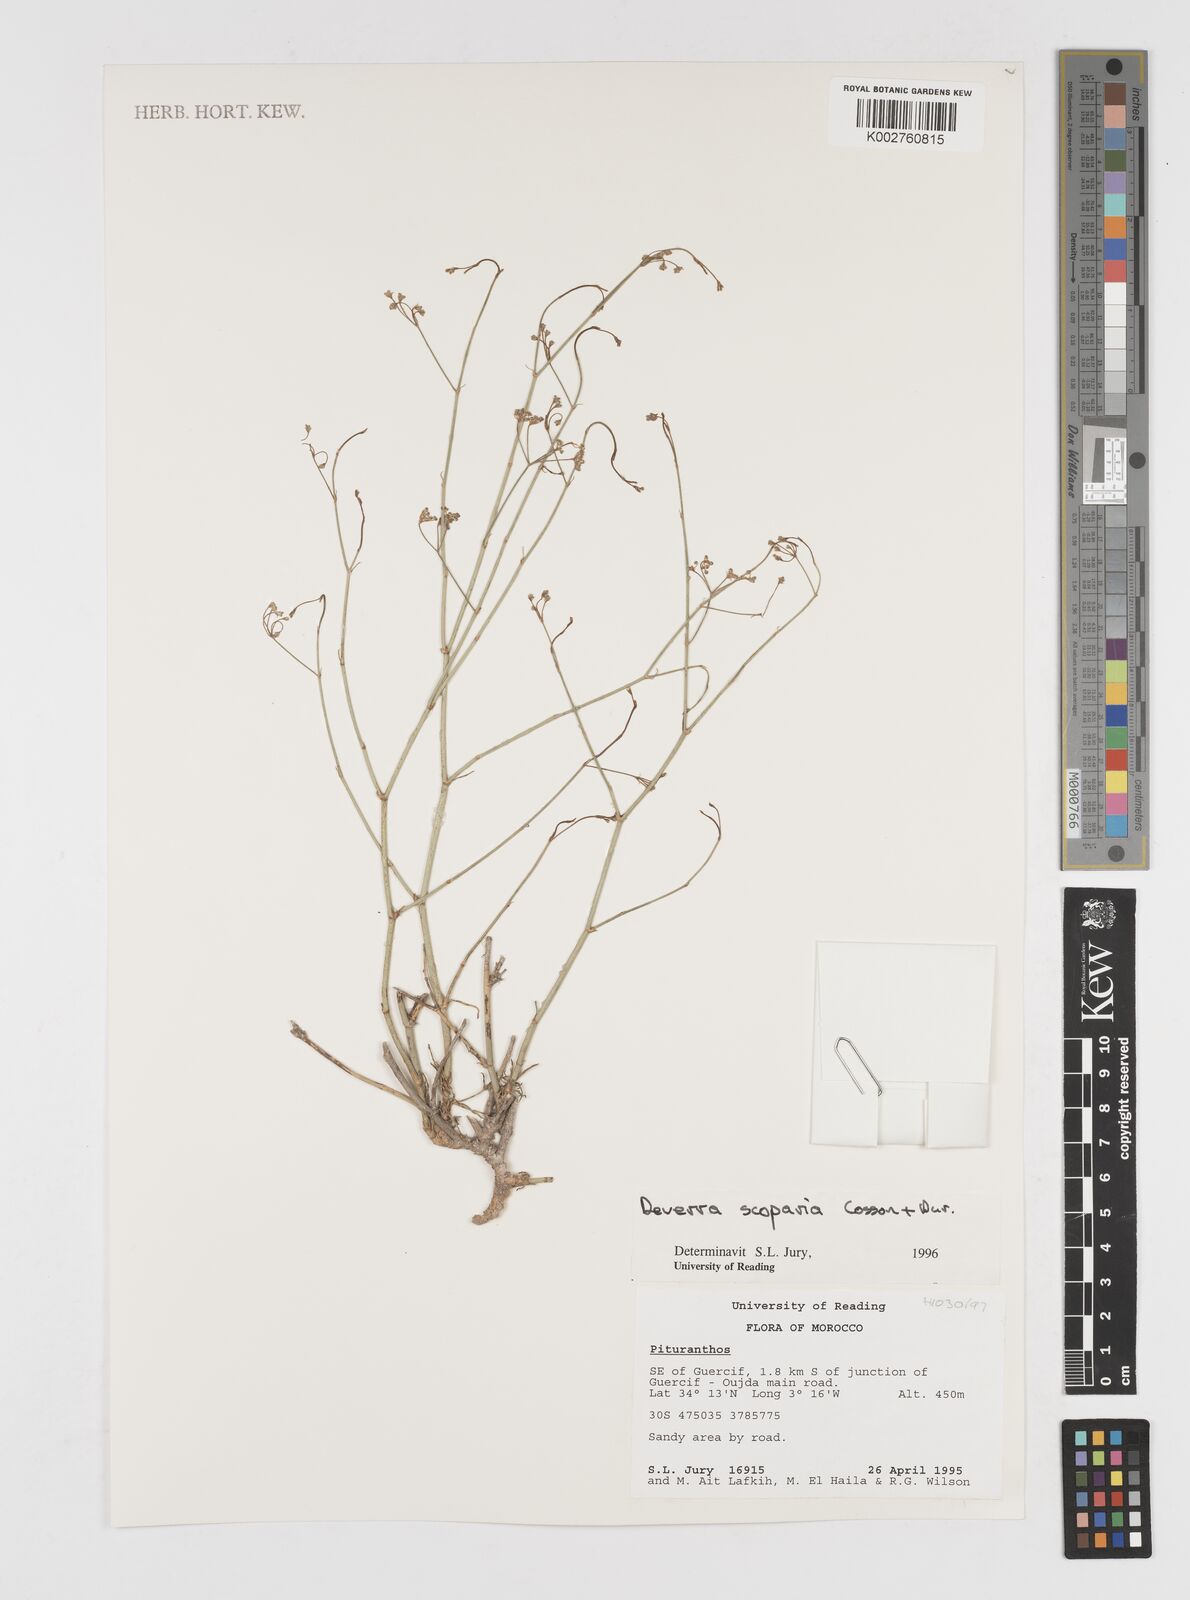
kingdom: Plantae
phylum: Tracheophyta
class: Magnoliopsida
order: Apiales
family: Apiaceae
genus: Deverra
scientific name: Deverra scoparia
